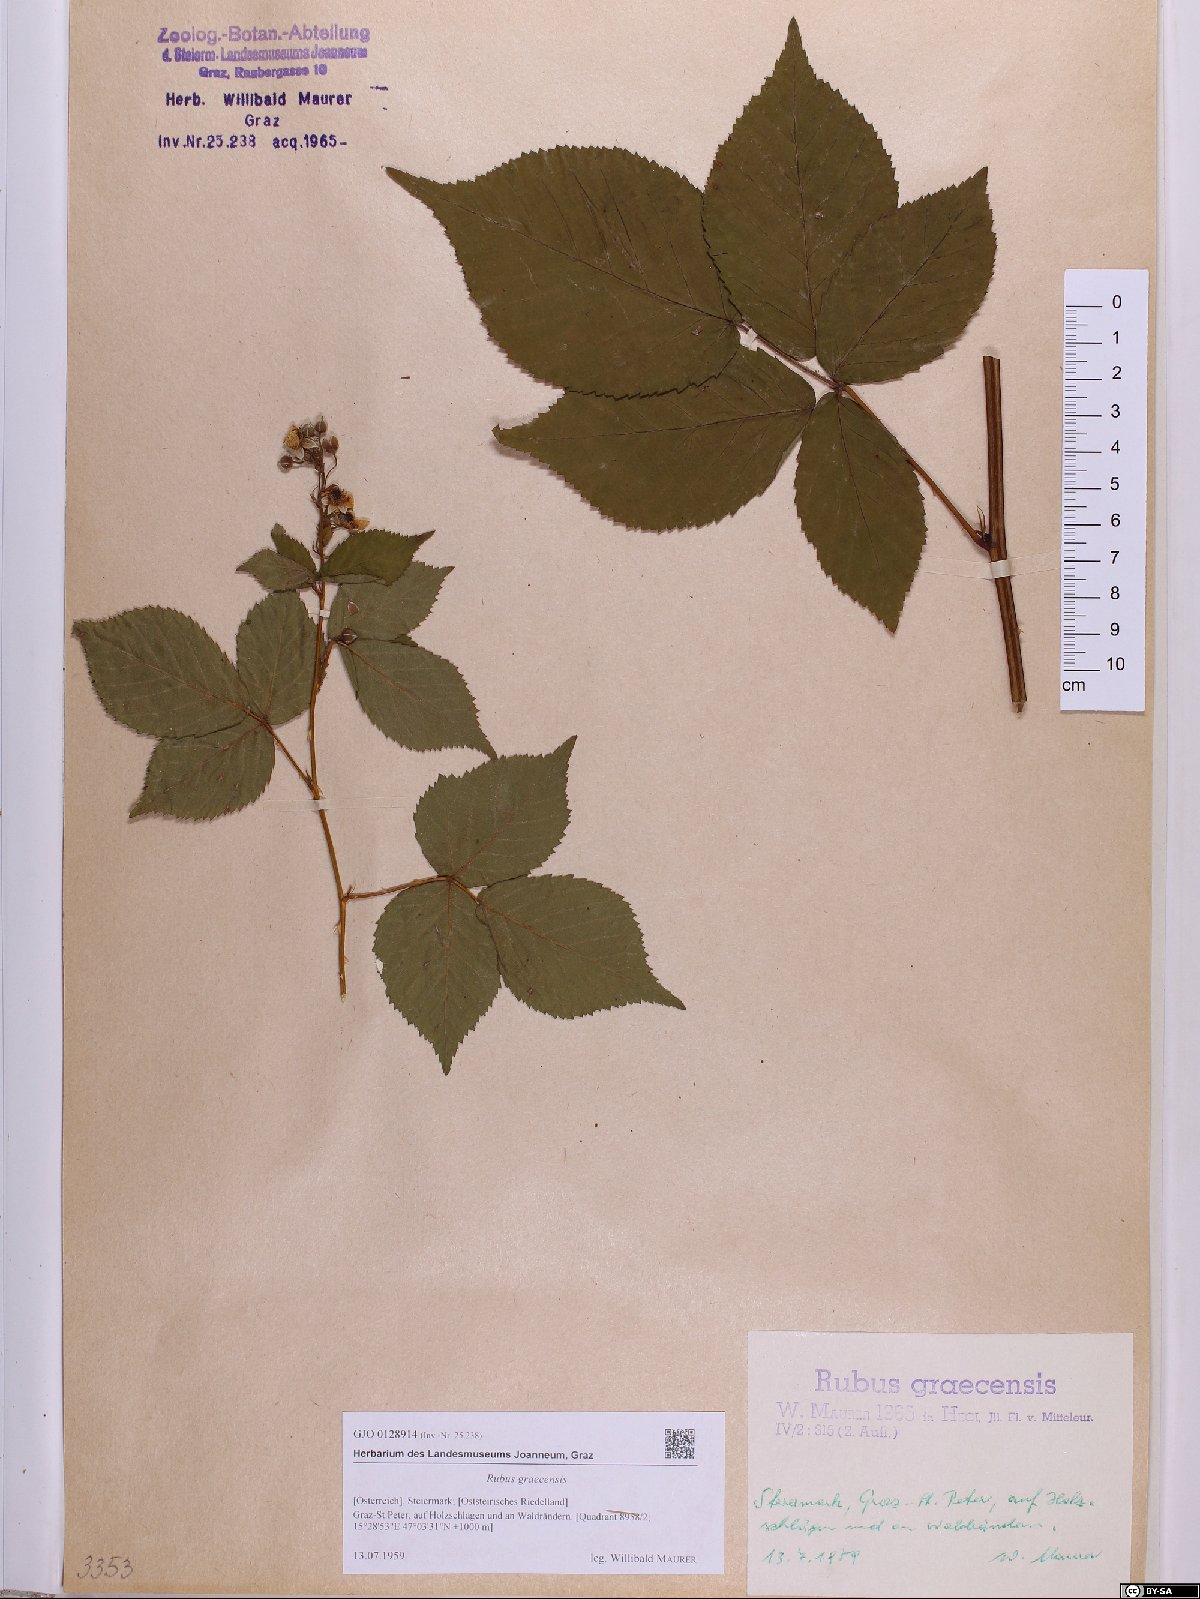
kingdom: Plantae
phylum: Tracheophyta
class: Magnoliopsida
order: Rosales
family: Rosaceae
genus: Rubus
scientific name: Rubus graecensis
